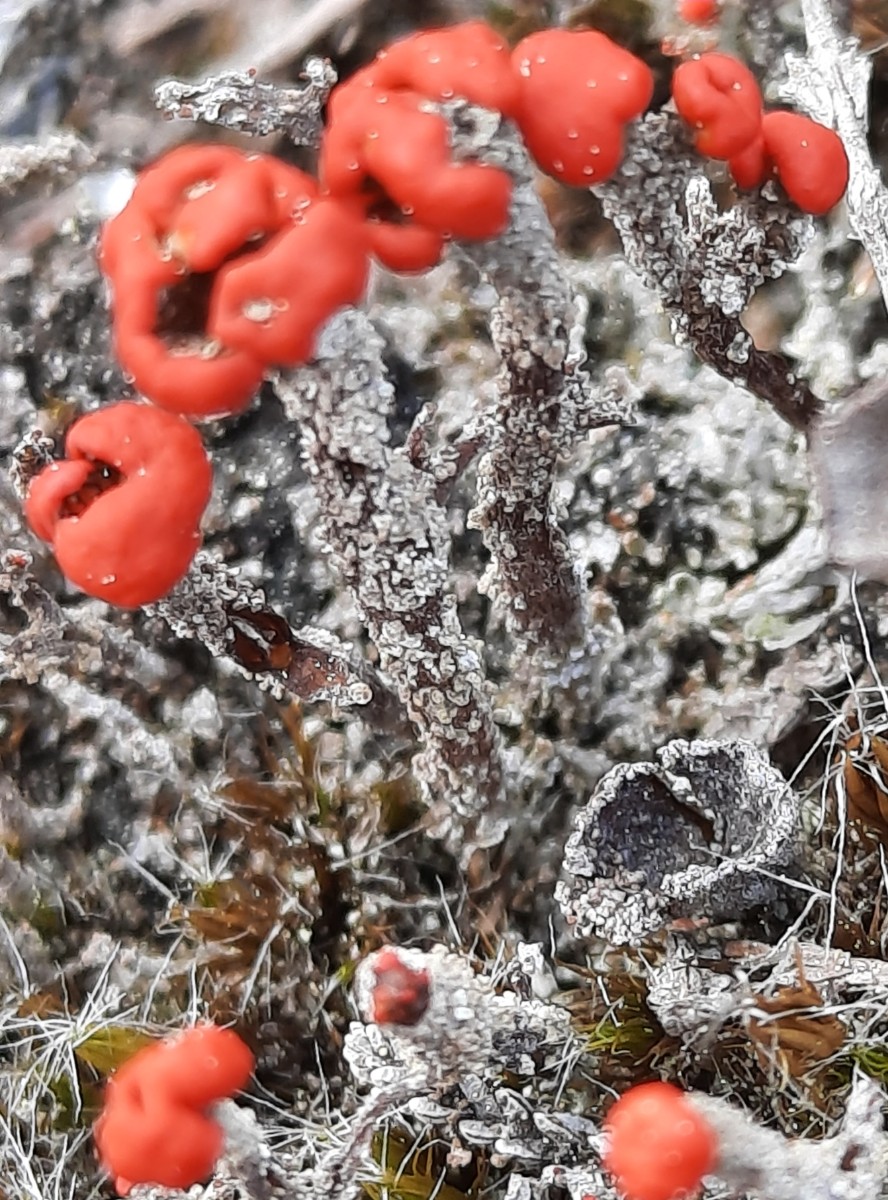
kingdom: Fungi
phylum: Ascomycota
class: Lecanoromycetes
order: Lecanorales
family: Cladoniaceae
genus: Cladonia
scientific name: Cladonia floerkeana
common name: lakrød bægerlav
